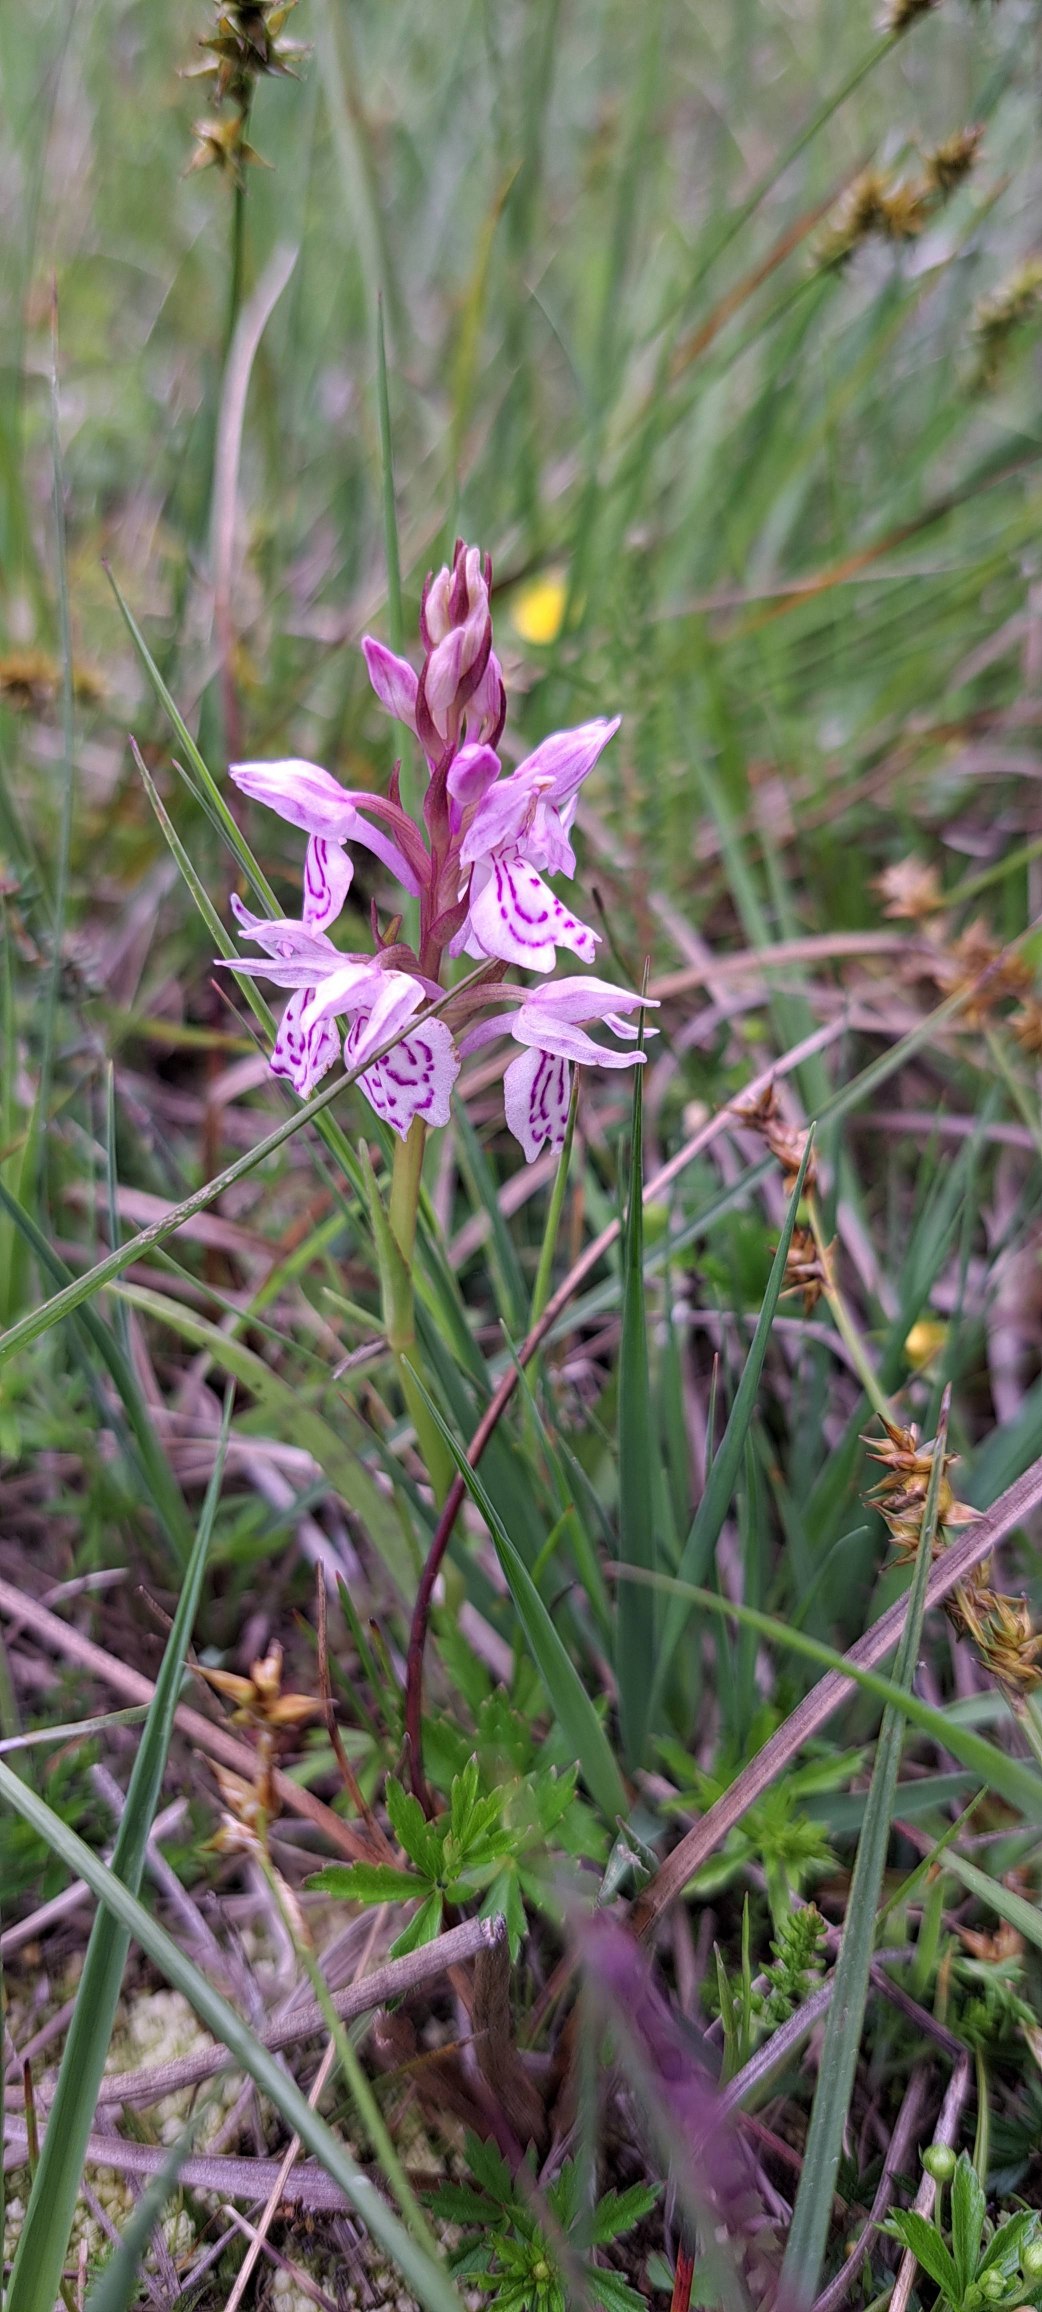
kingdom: Plantae
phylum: Tracheophyta
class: Liliopsida
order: Asparagales
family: Orchidaceae
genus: Dactylorhiza
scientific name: Dactylorhiza maculata
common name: Plettet gøgeurt
